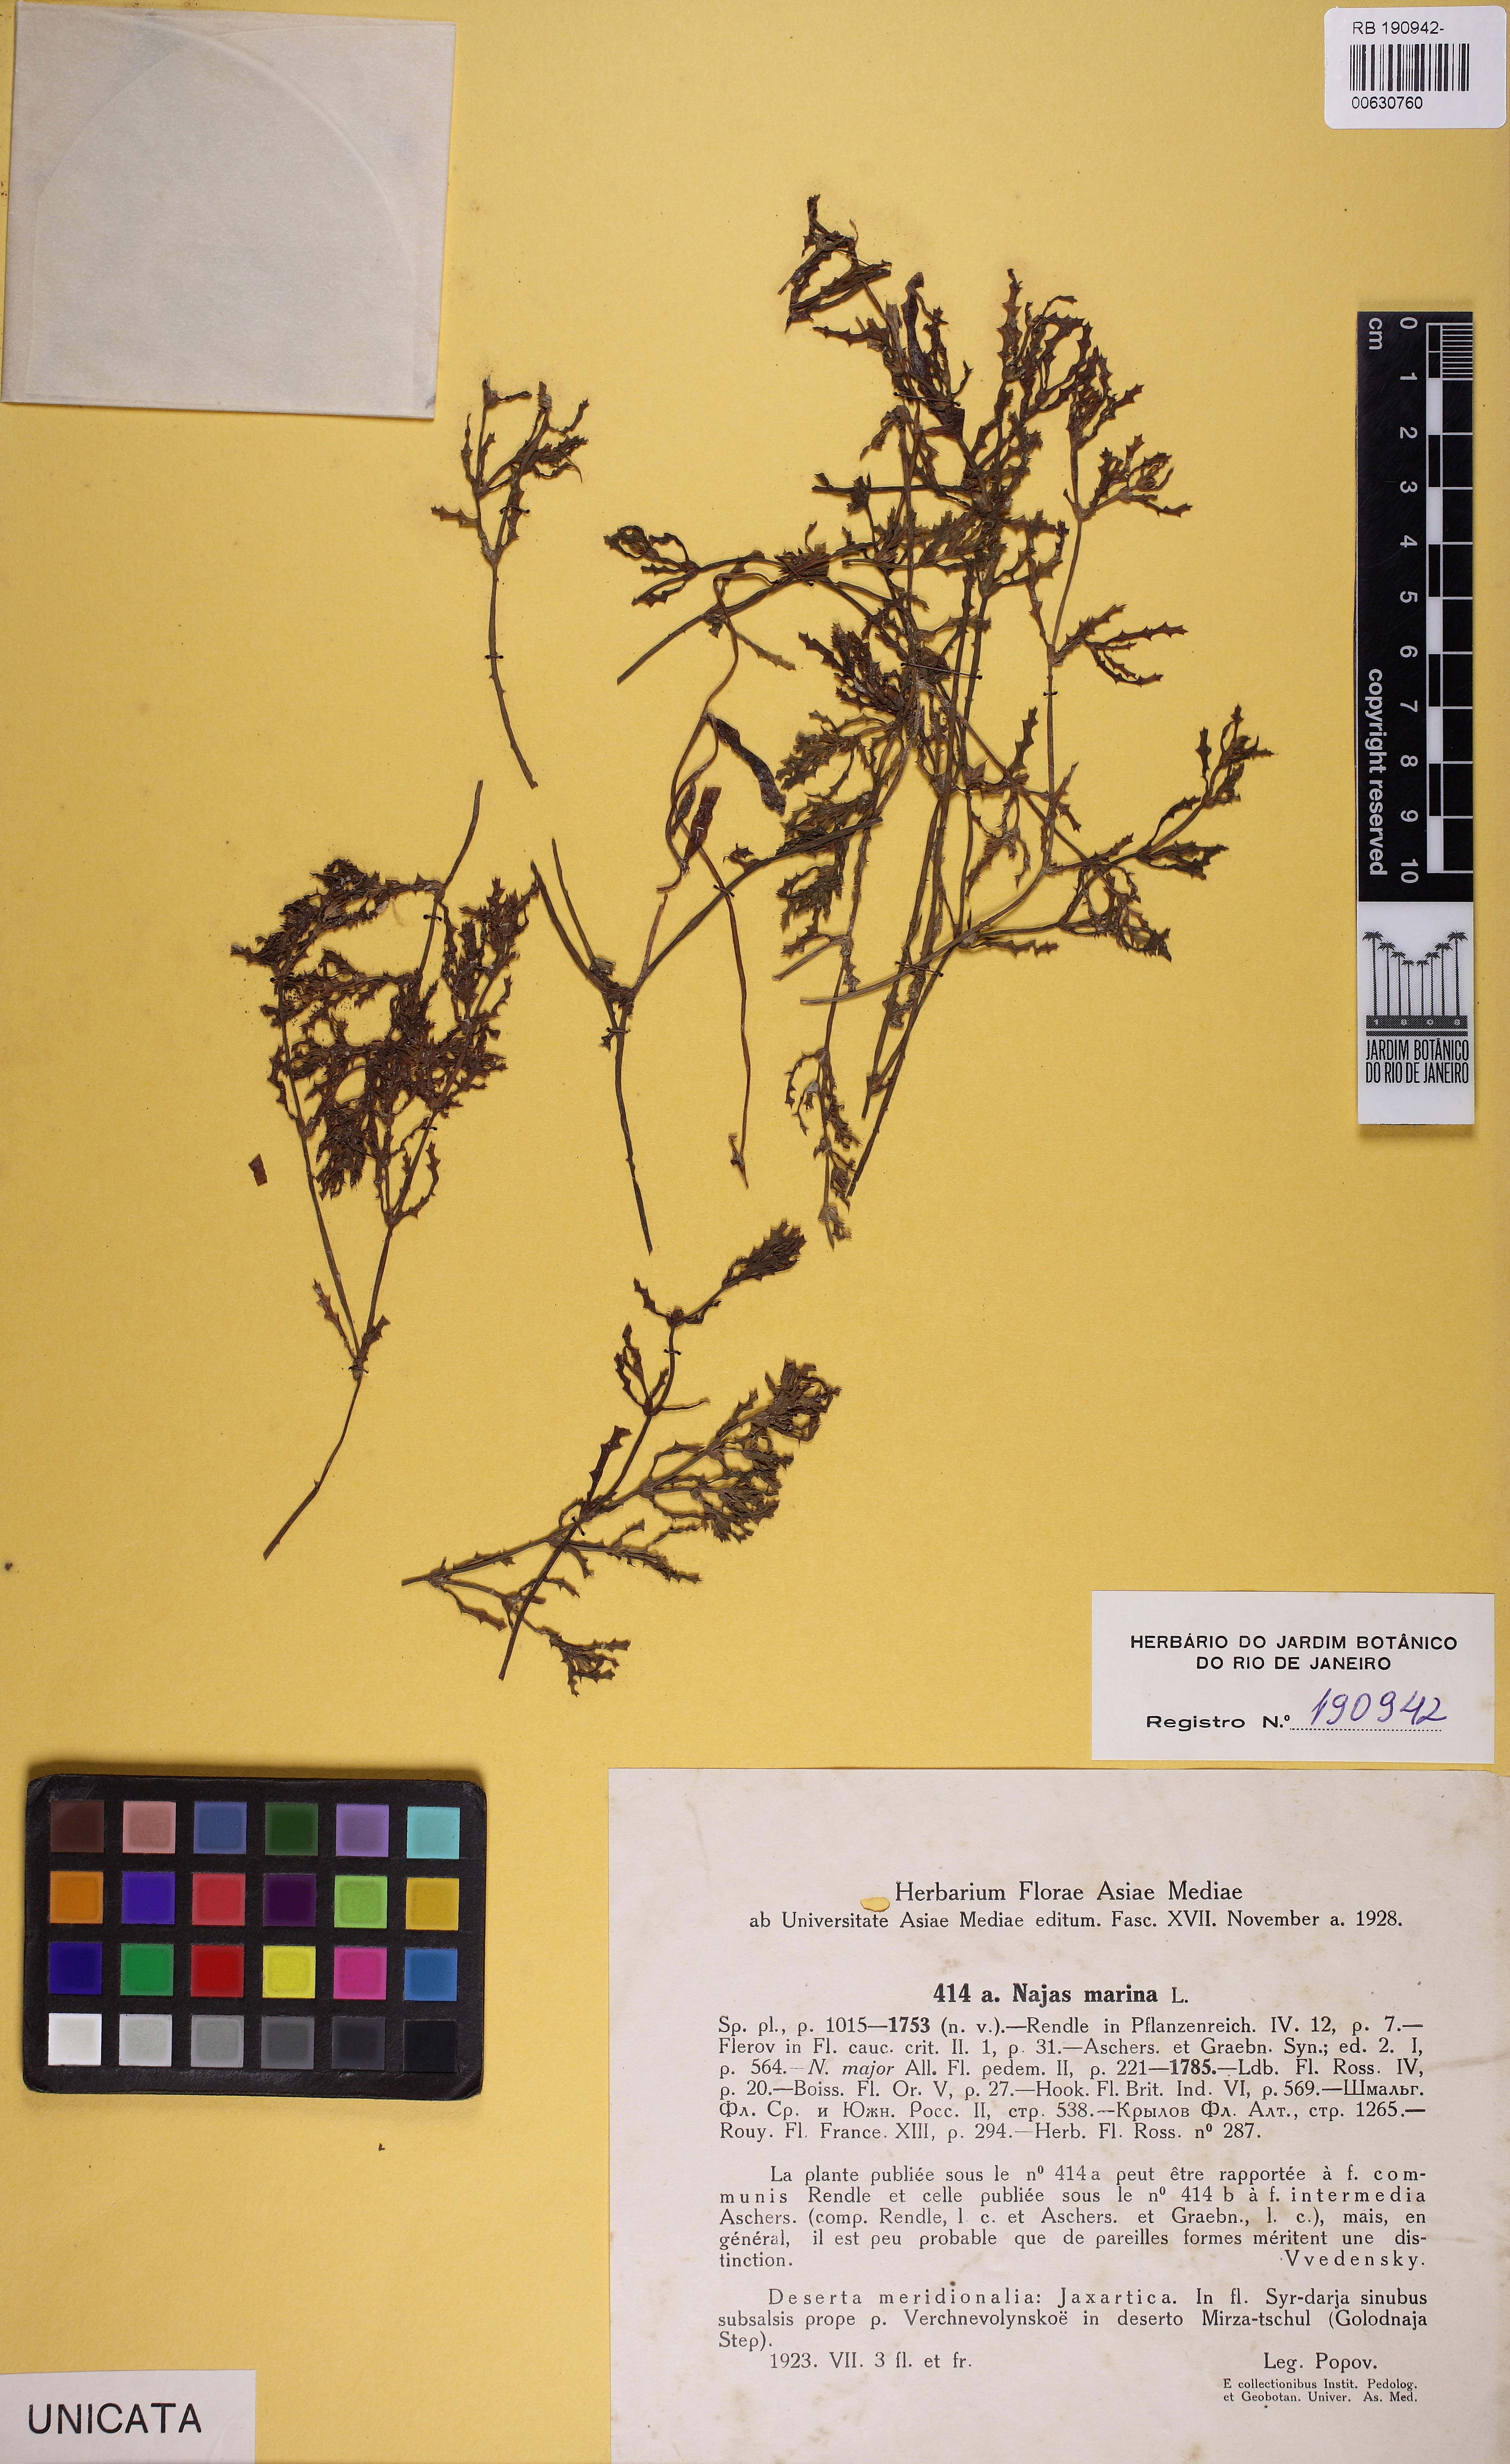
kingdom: Plantae
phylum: Tracheophyta
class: Liliopsida
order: Alismatales
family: Hydrocharitaceae
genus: Najas
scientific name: Najas marina
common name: Holly-leaved naiad
